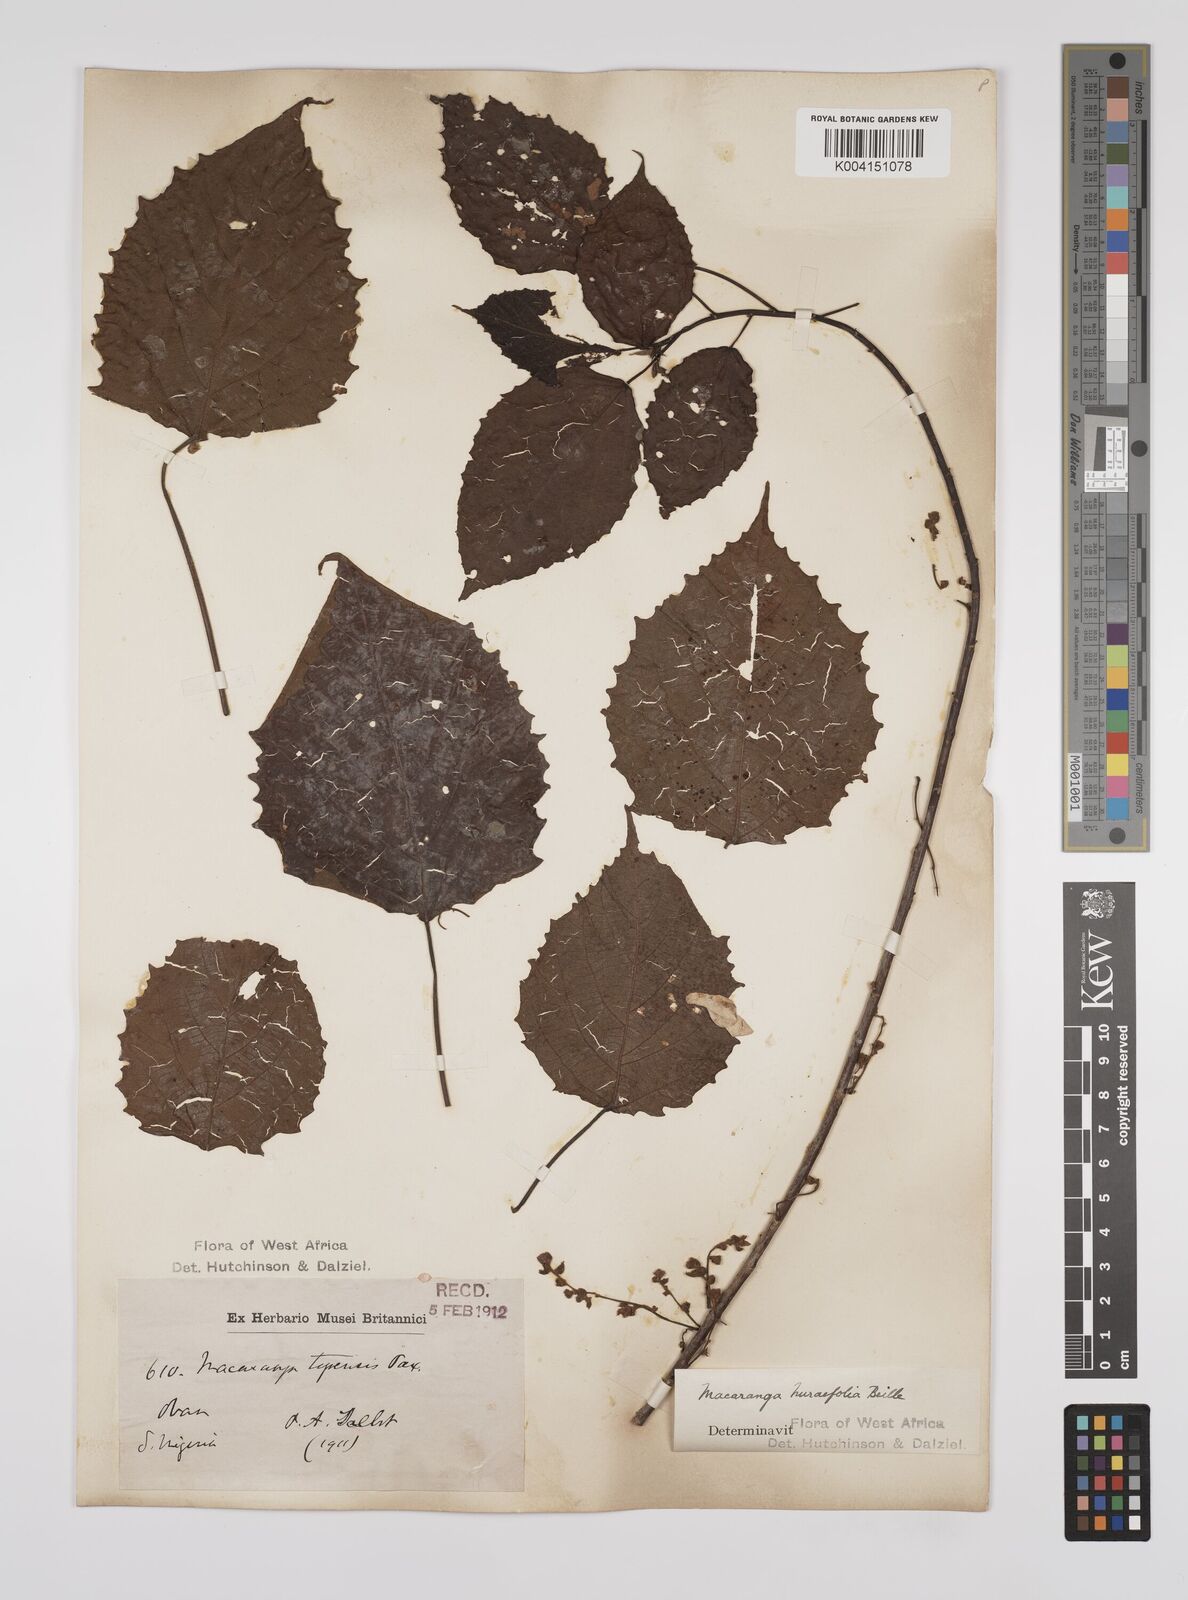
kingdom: Plantae
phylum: Tracheophyta
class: Magnoliopsida
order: Malpighiales
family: Euphorbiaceae
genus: Macaranga
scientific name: Macaranga hurifolia
